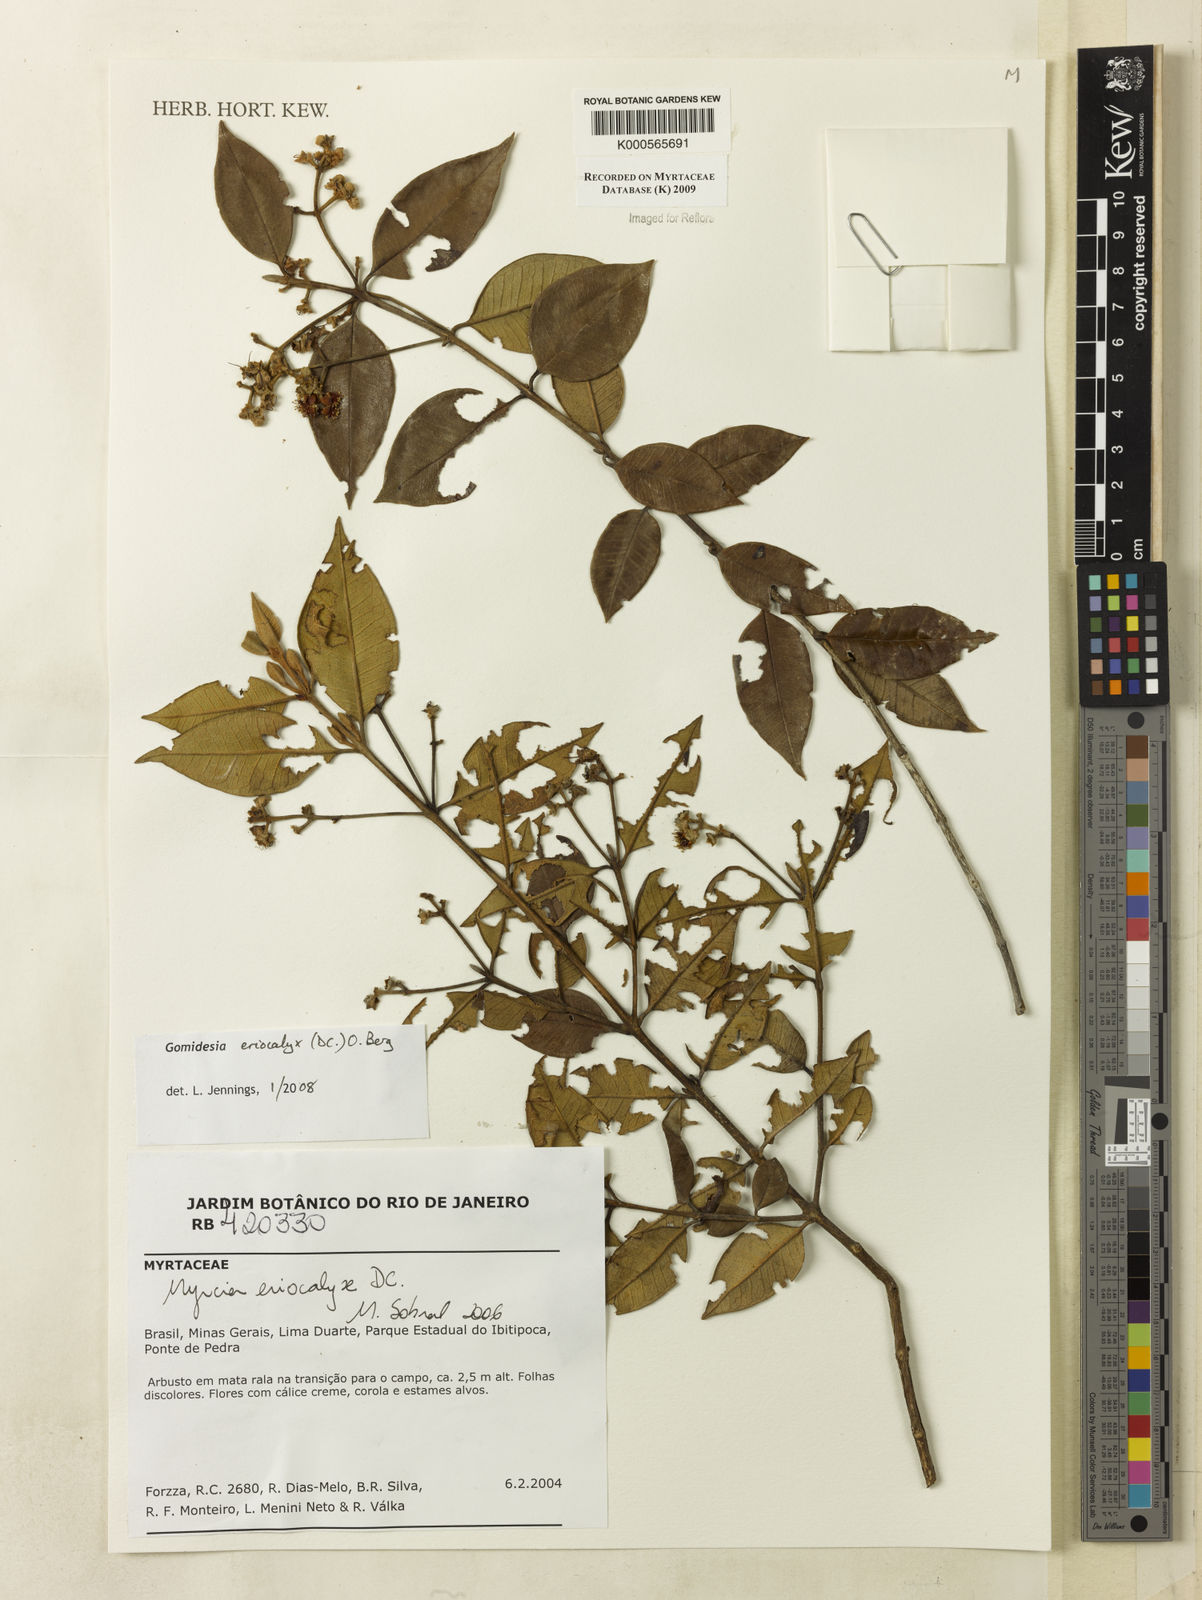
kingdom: Plantae
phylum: Tracheophyta
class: Magnoliopsida
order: Myrtales
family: Myrtaceae
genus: Myrcia
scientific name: Myrcia eriocalyx
